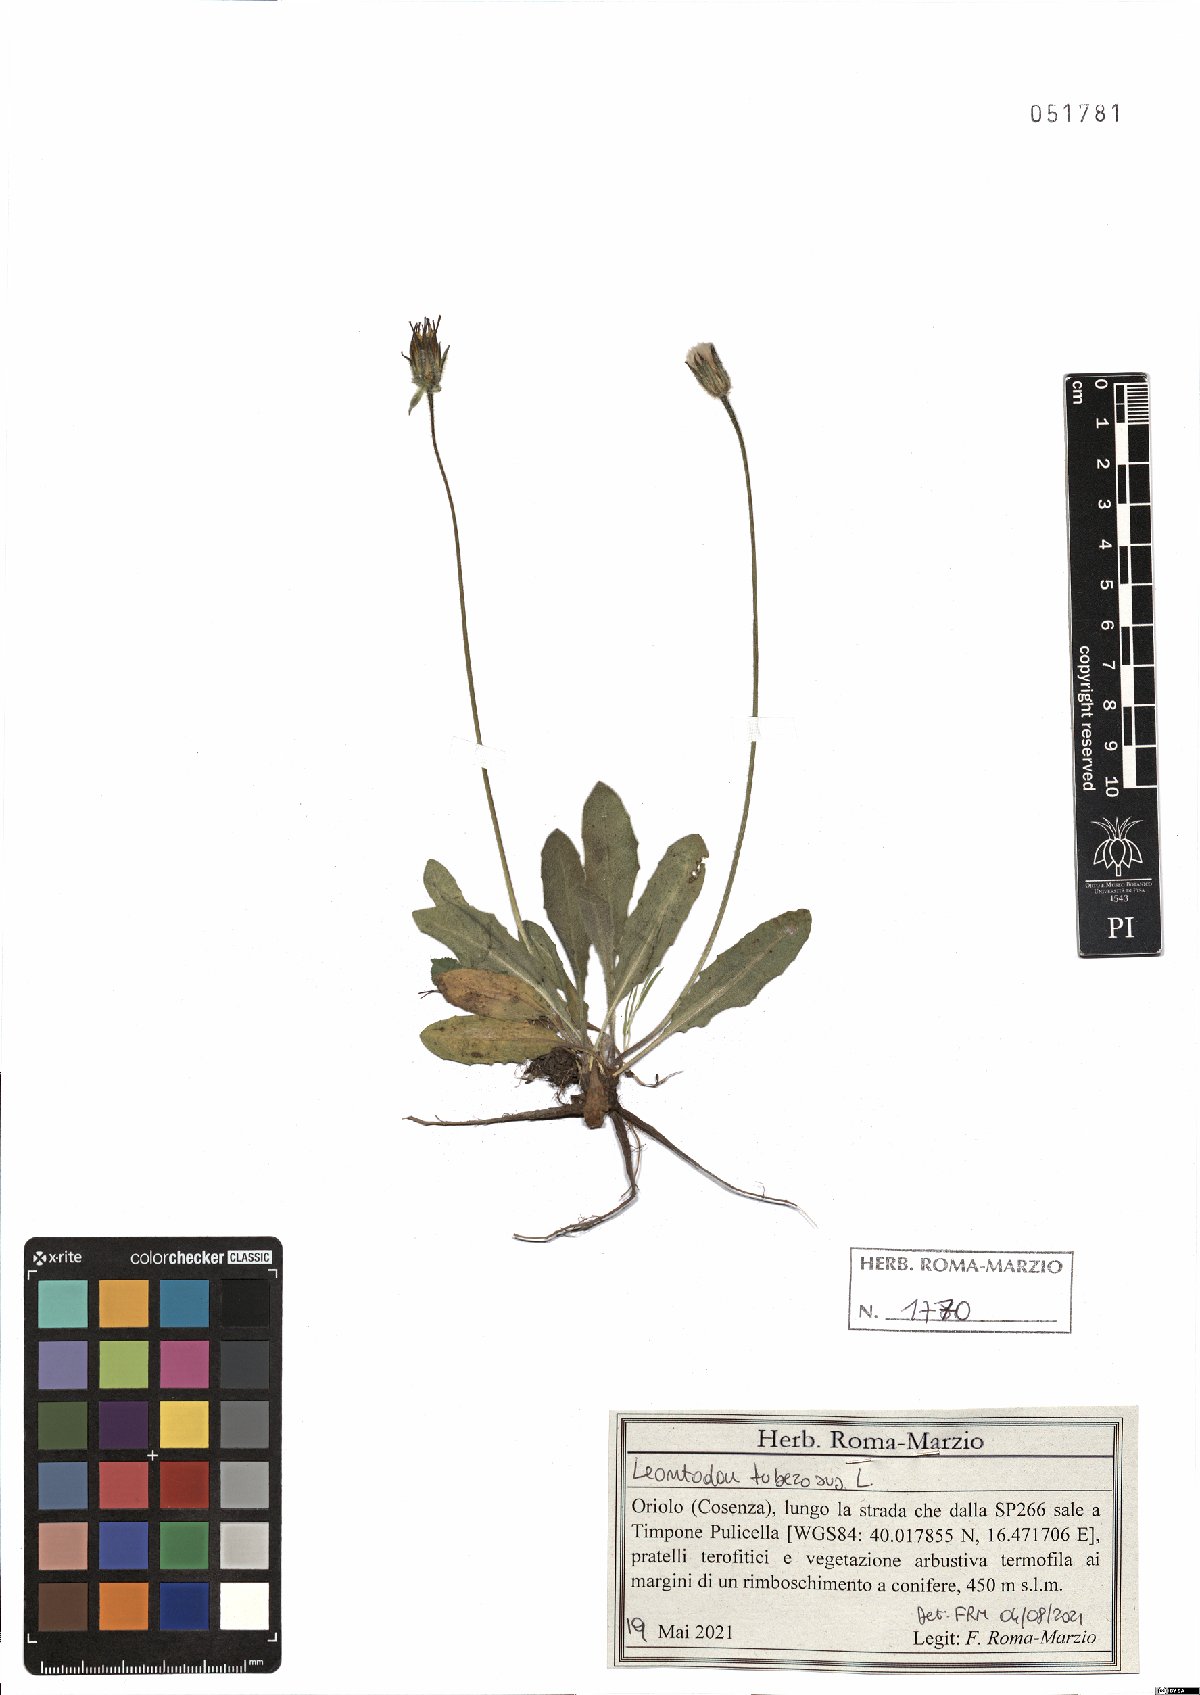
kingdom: Plantae
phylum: Tracheophyta
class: Magnoliopsida
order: Asterales
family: Asteraceae
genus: Thrincia
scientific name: Thrincia tuberosa
